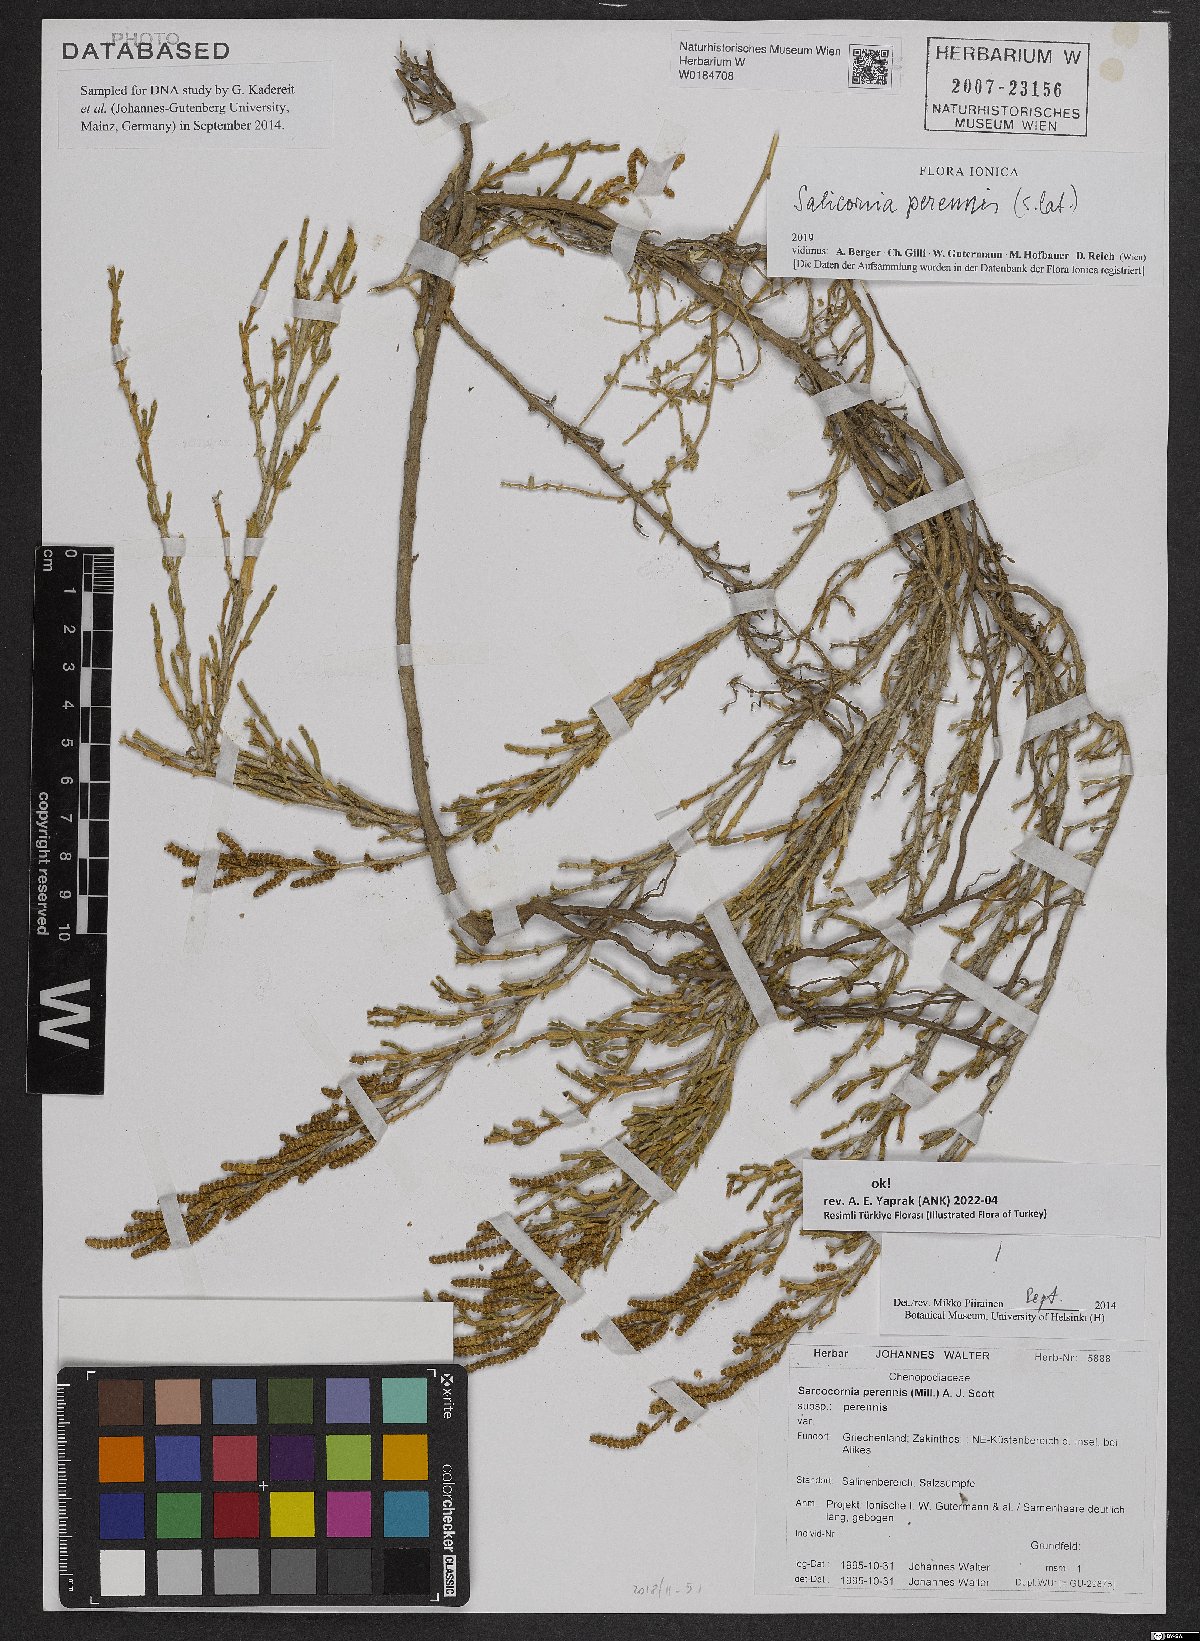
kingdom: Plantae
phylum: Tracheophyta
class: Magnoliopsida
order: Caryophyllales
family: Amaranthaceae
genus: Salicornia
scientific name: Salicornia perennis
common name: Chicken claws
